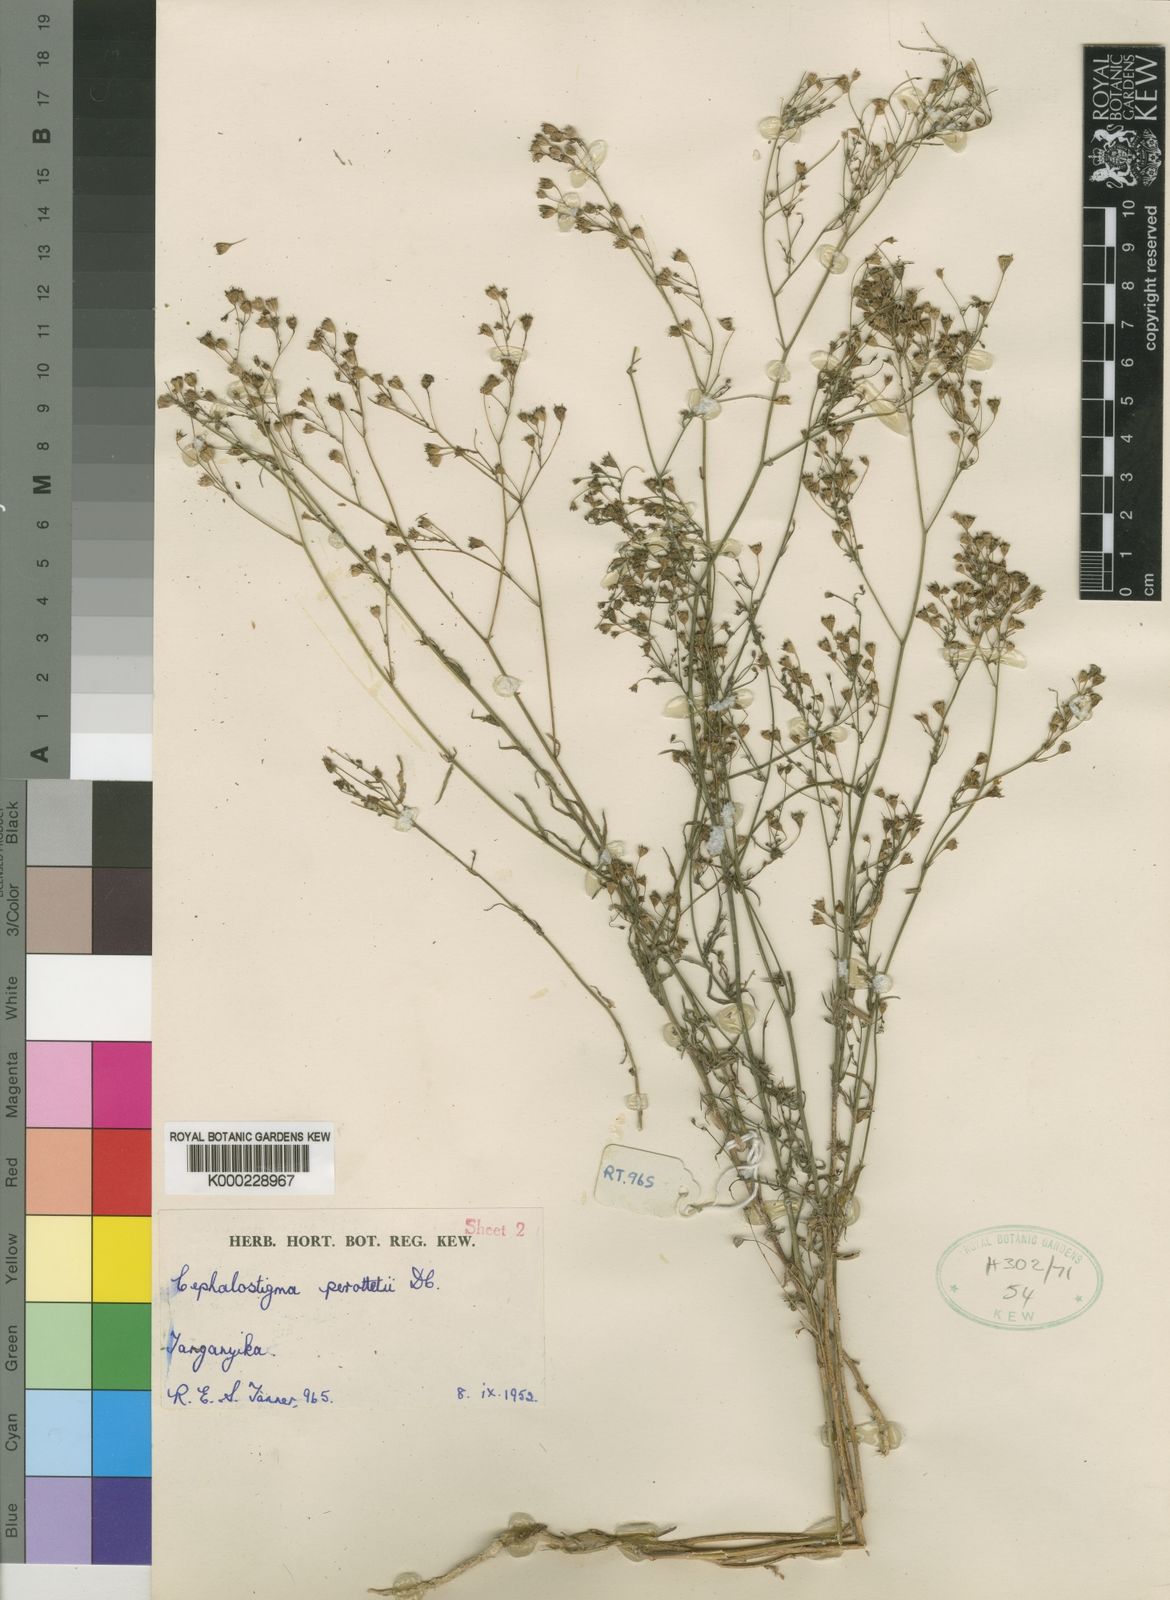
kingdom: Plantae
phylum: Tracheophyta
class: Magnoliopsida
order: Asterales
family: Campanulaceae
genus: Wahlenbergia
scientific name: Wahlenbergia abyssinica
